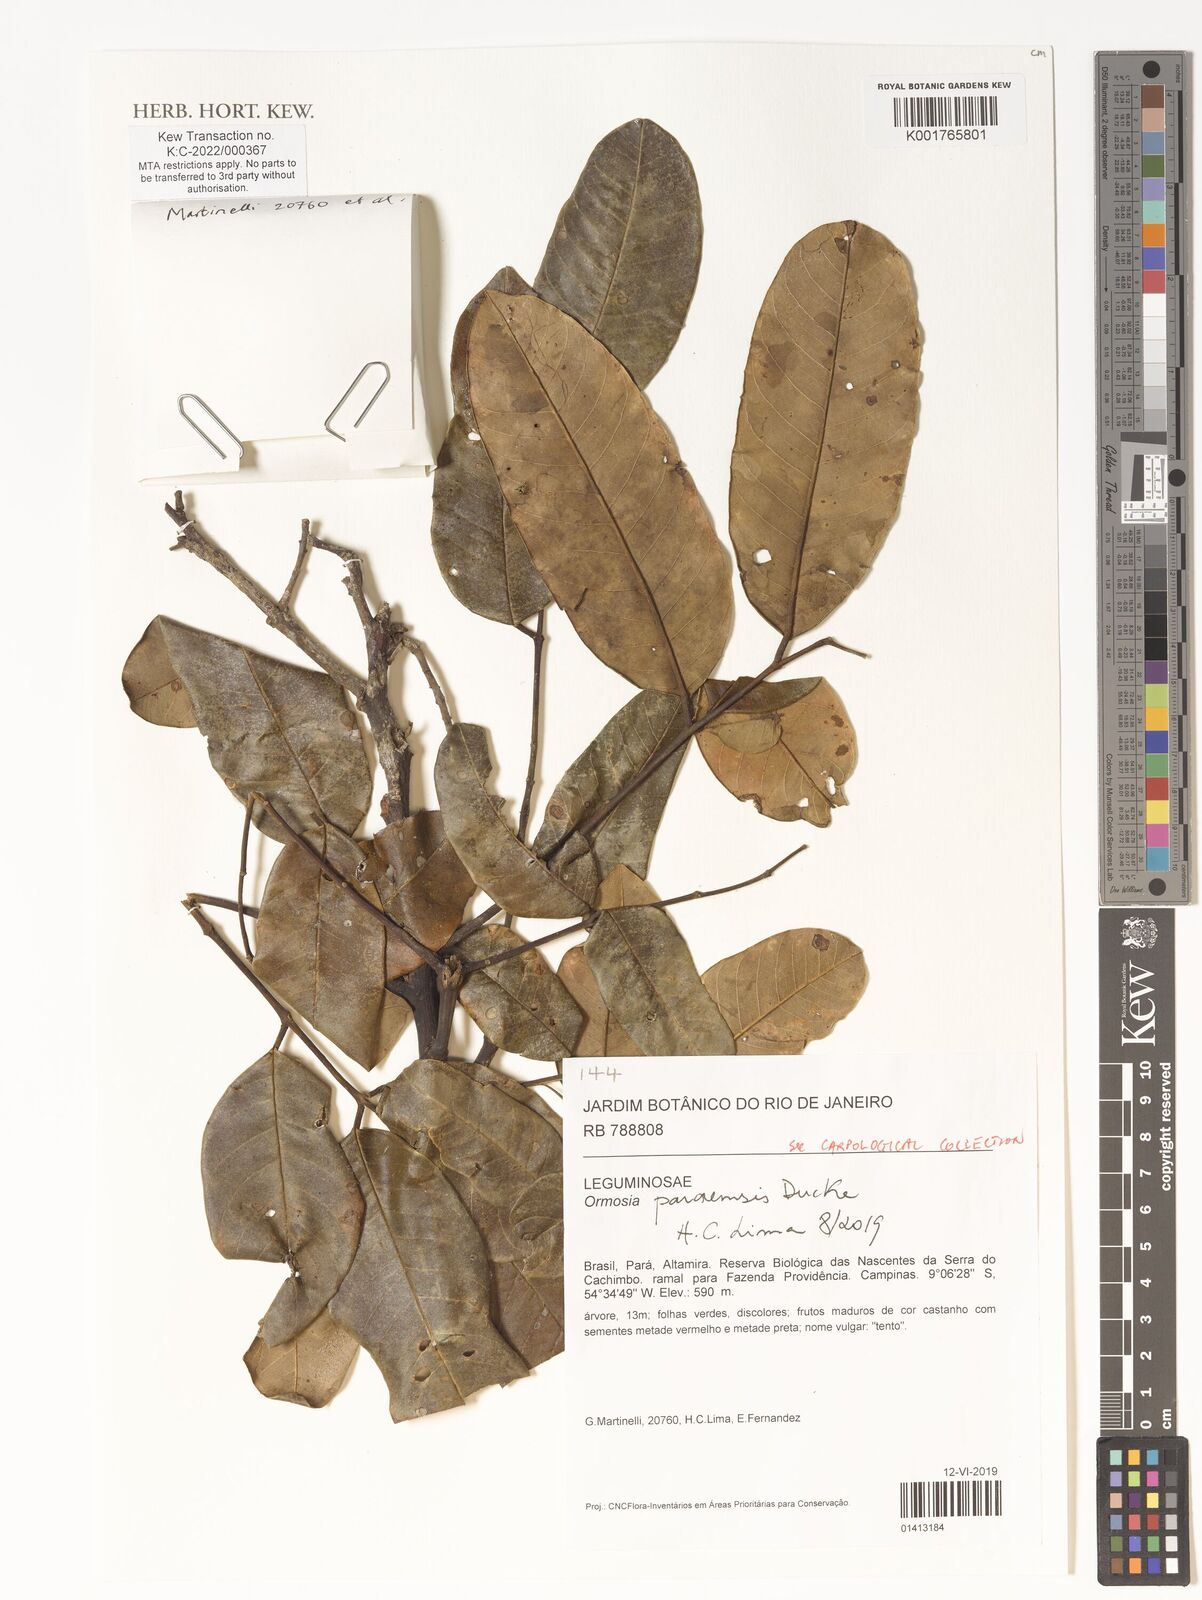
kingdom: Plantae
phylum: Tracheophyta
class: Magnoliopsida
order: Fabales
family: Fabaceae
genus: Ormosia
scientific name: Ormosia paraensis
